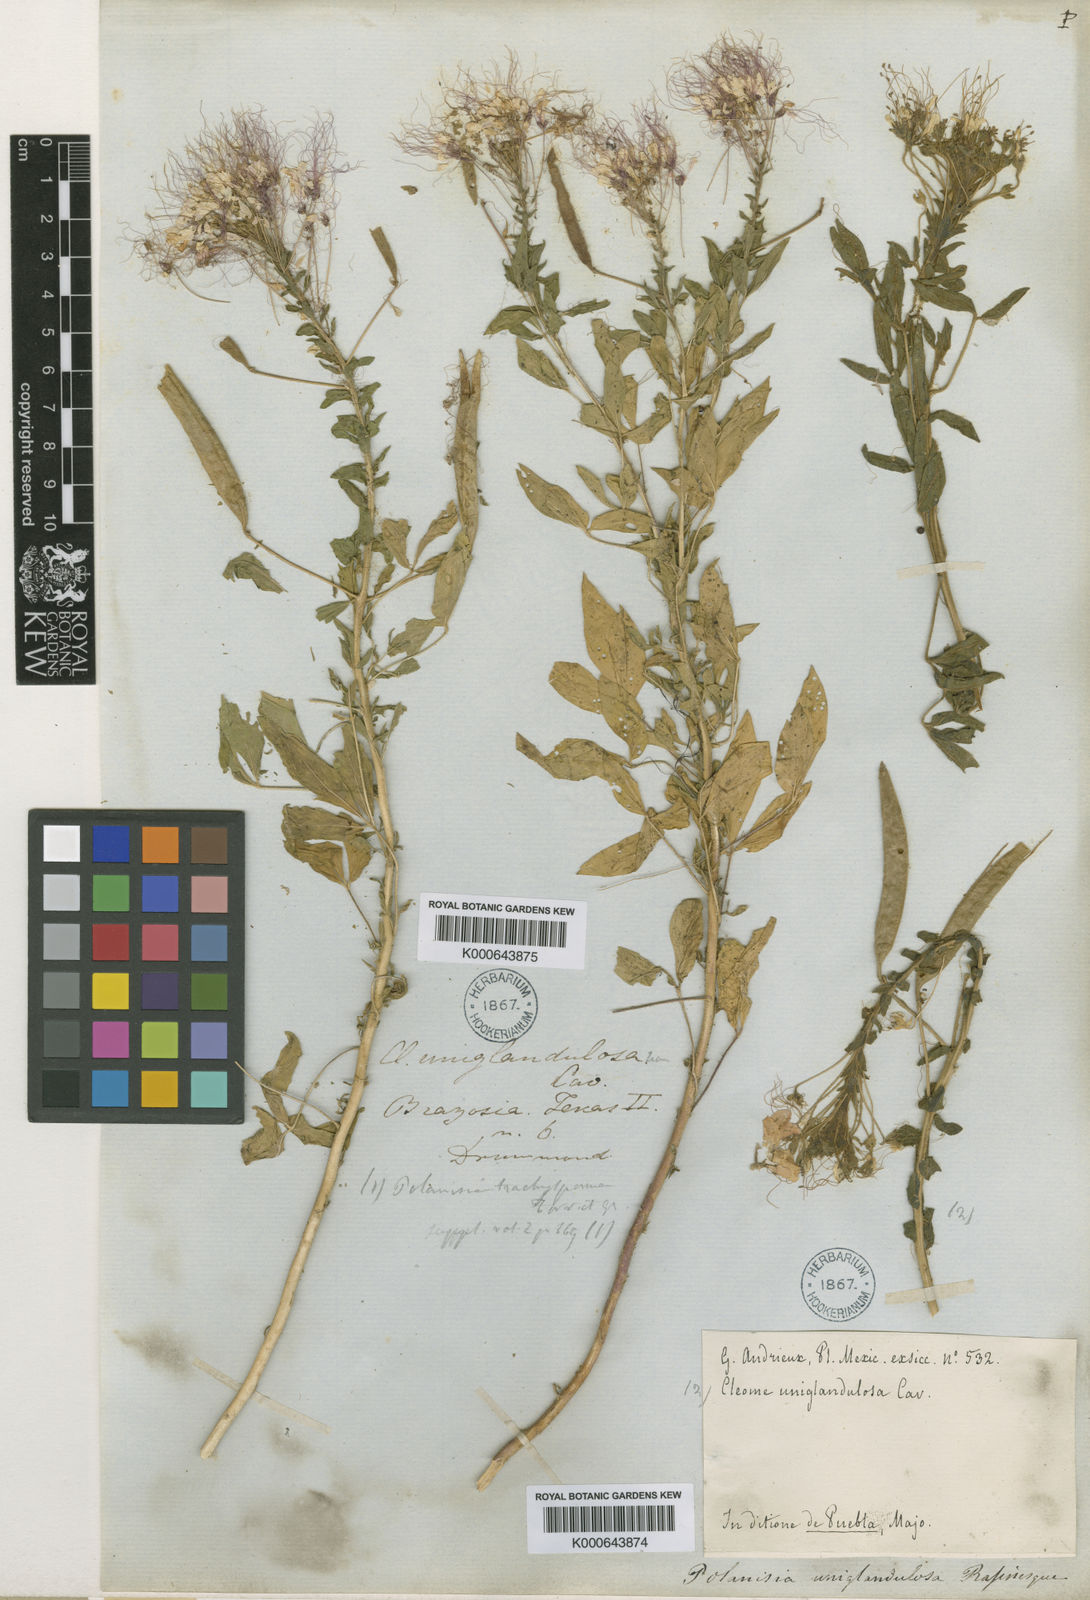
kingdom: Plantae
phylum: Tracheophyta
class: Magnoliopsida
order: Brassicales
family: Cleomaceae
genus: Polanisia
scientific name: Polanisia trachysperma
